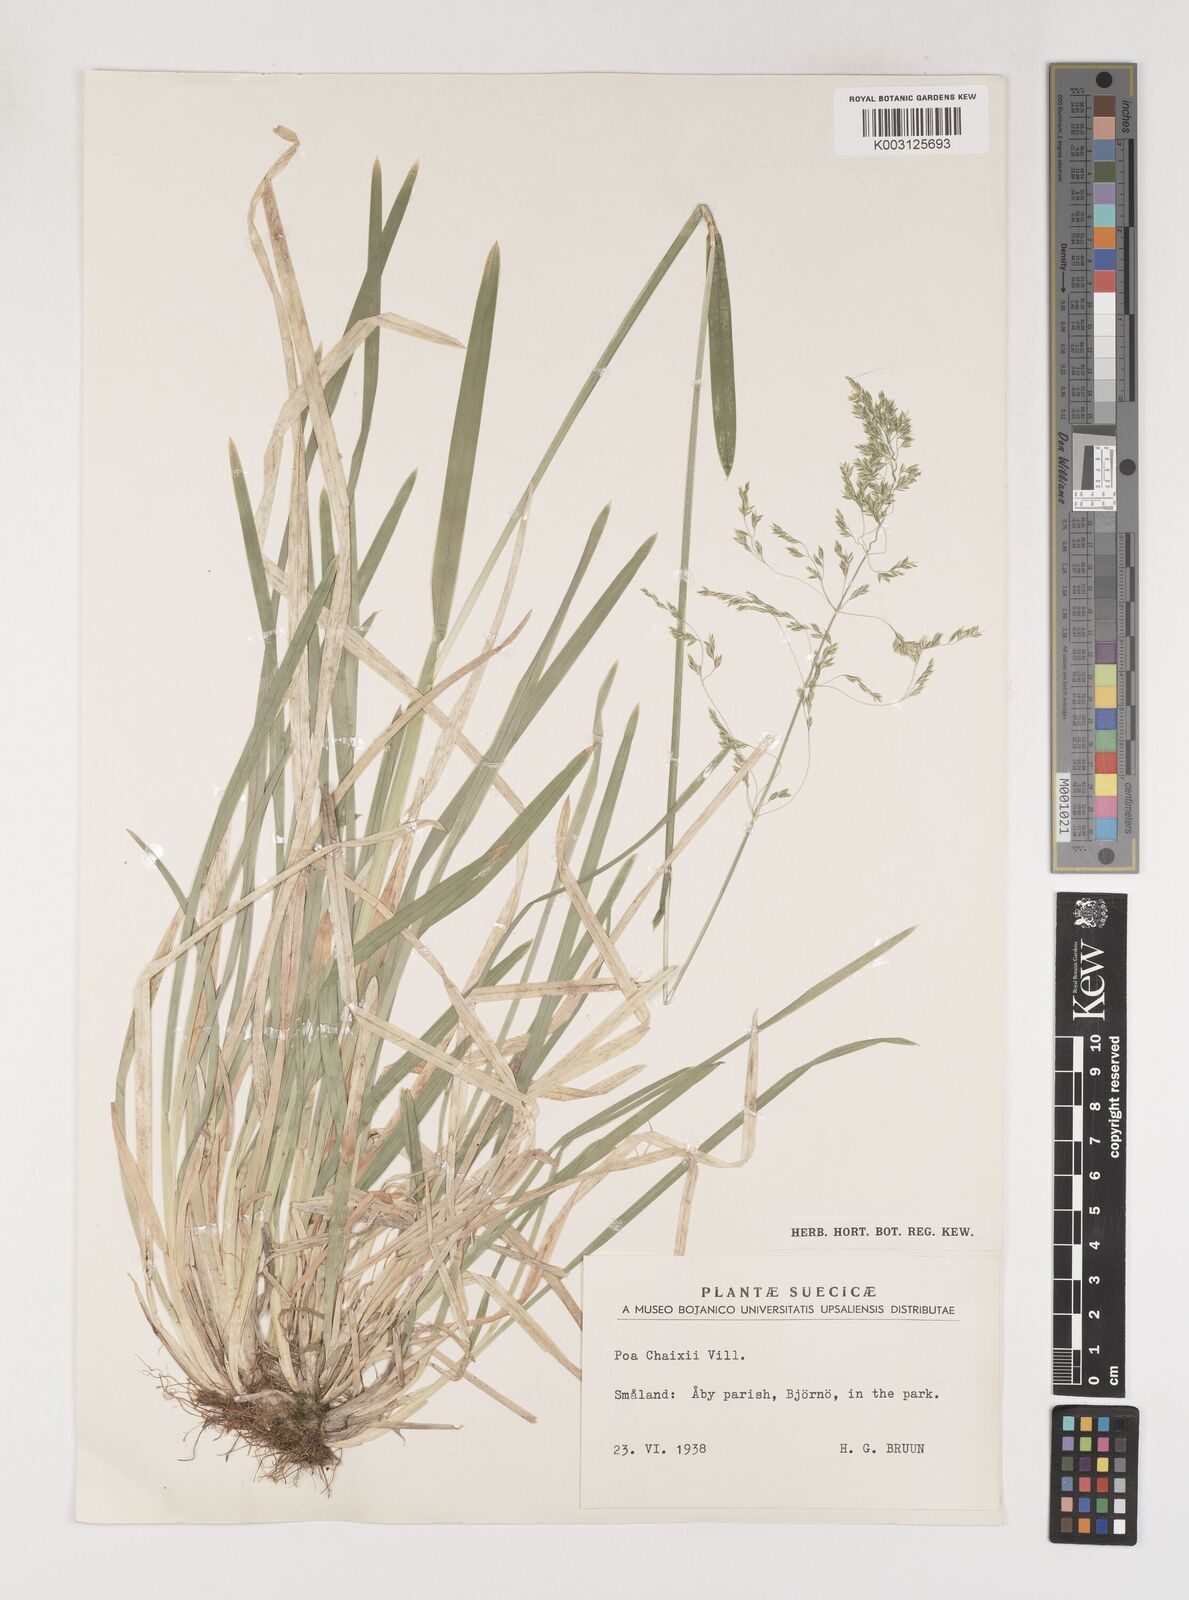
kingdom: Plantae
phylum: Tracheophyta
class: Liliopsida
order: Poales
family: Poaceae
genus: Poa
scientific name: Poa chaixii
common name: Broad-leaved meadow-grass
